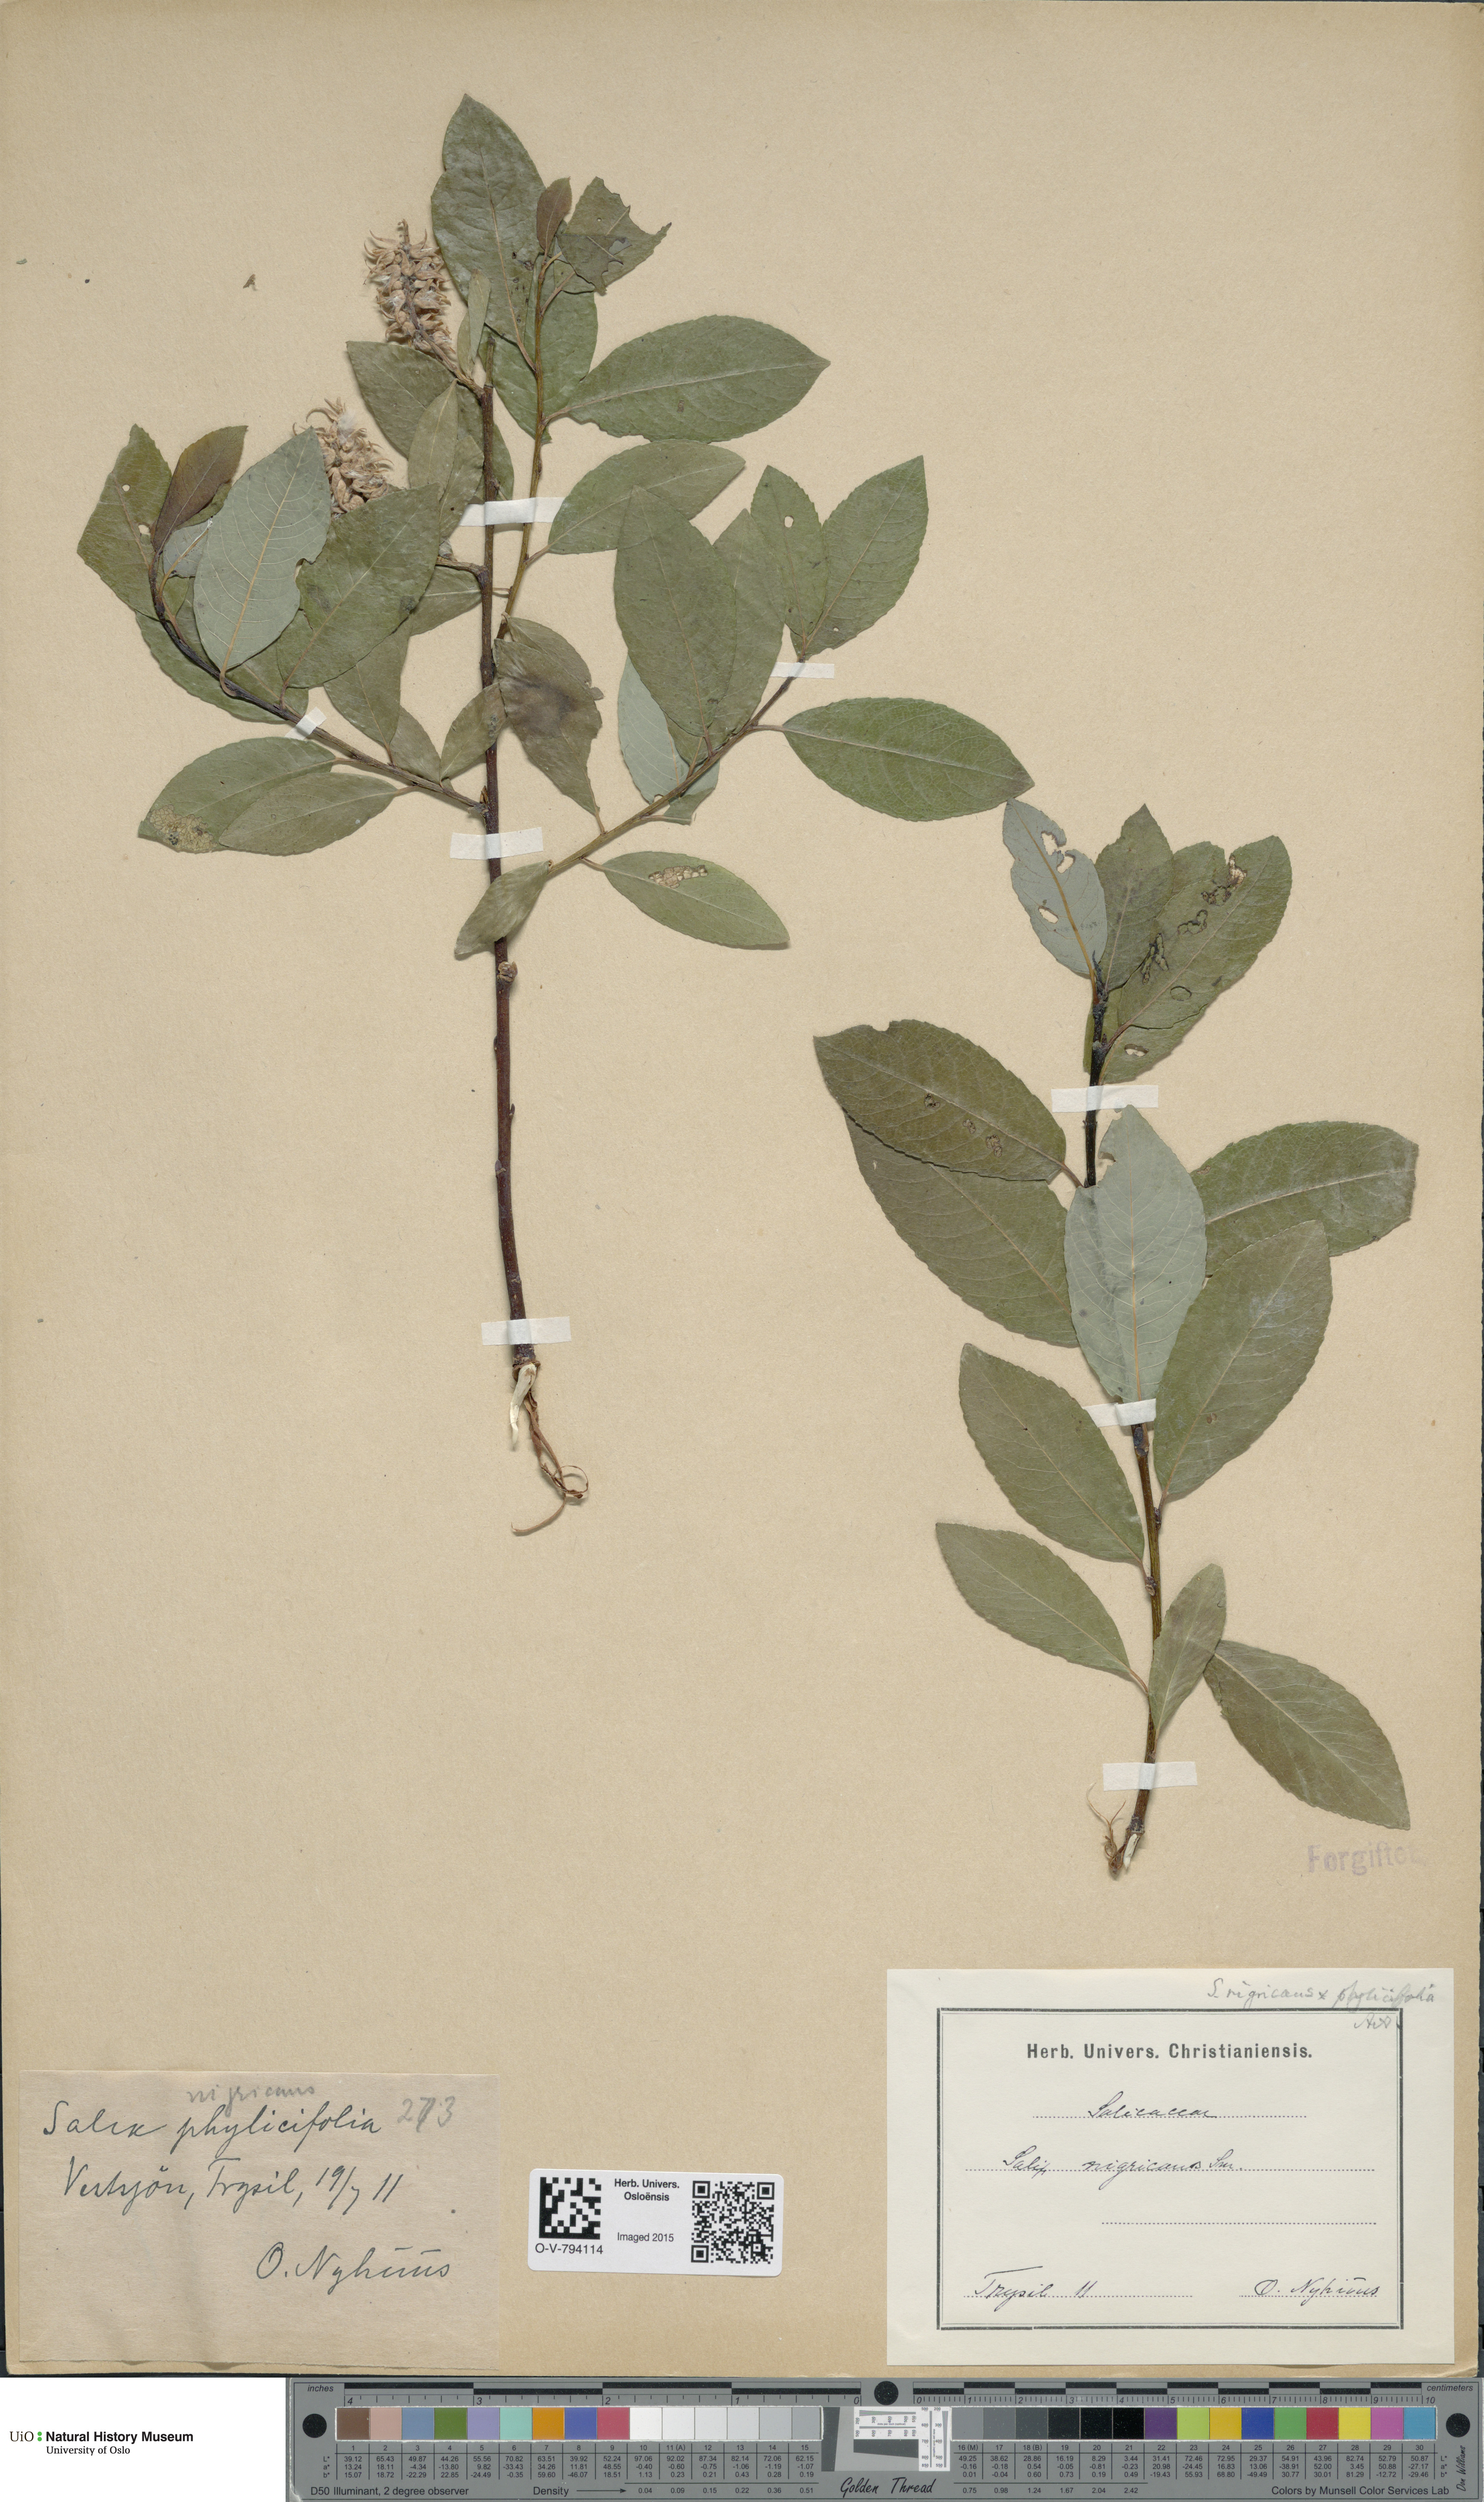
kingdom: Plantae
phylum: Tracheophyta
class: Magnoliopsida
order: Malpighiales
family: Salicaceae
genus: Salix
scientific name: Salix
